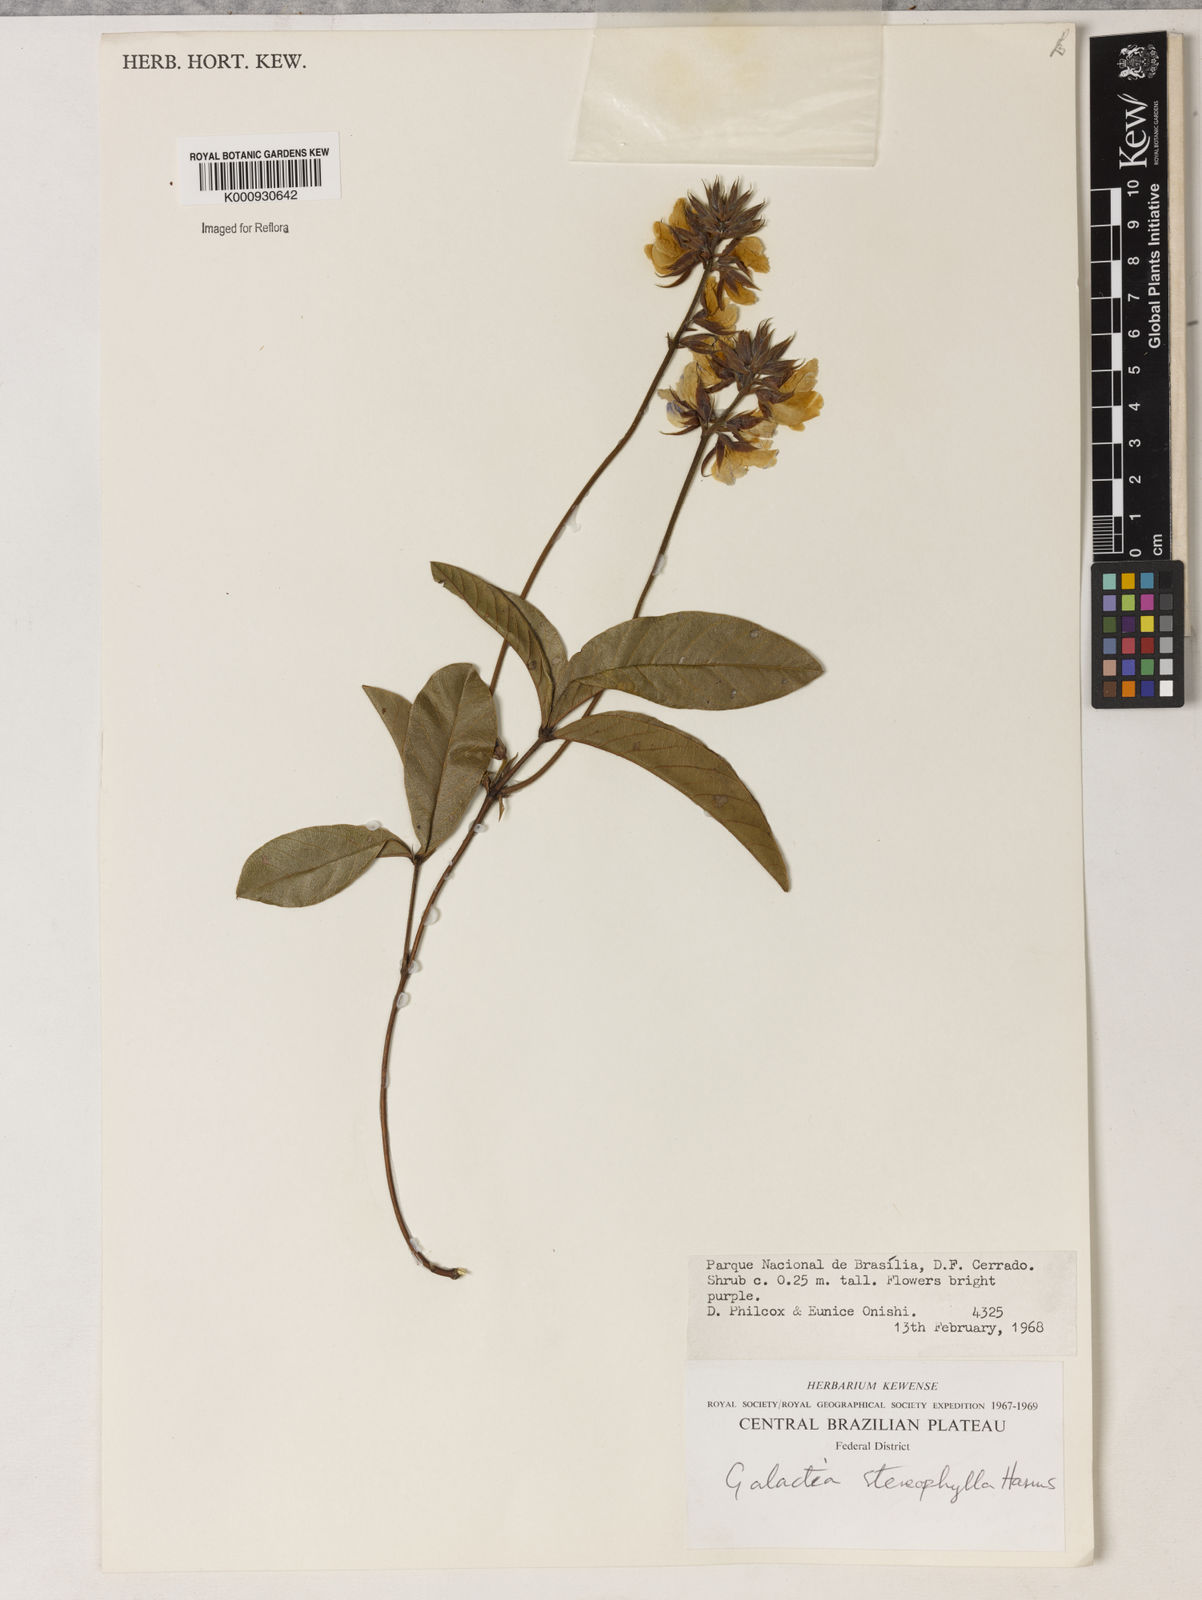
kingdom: Plantae
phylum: Tracheophyta
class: Magnoliopsida
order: Fabales
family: Fabaceae
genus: Betencourtia
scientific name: Betencourtia stereophylla
